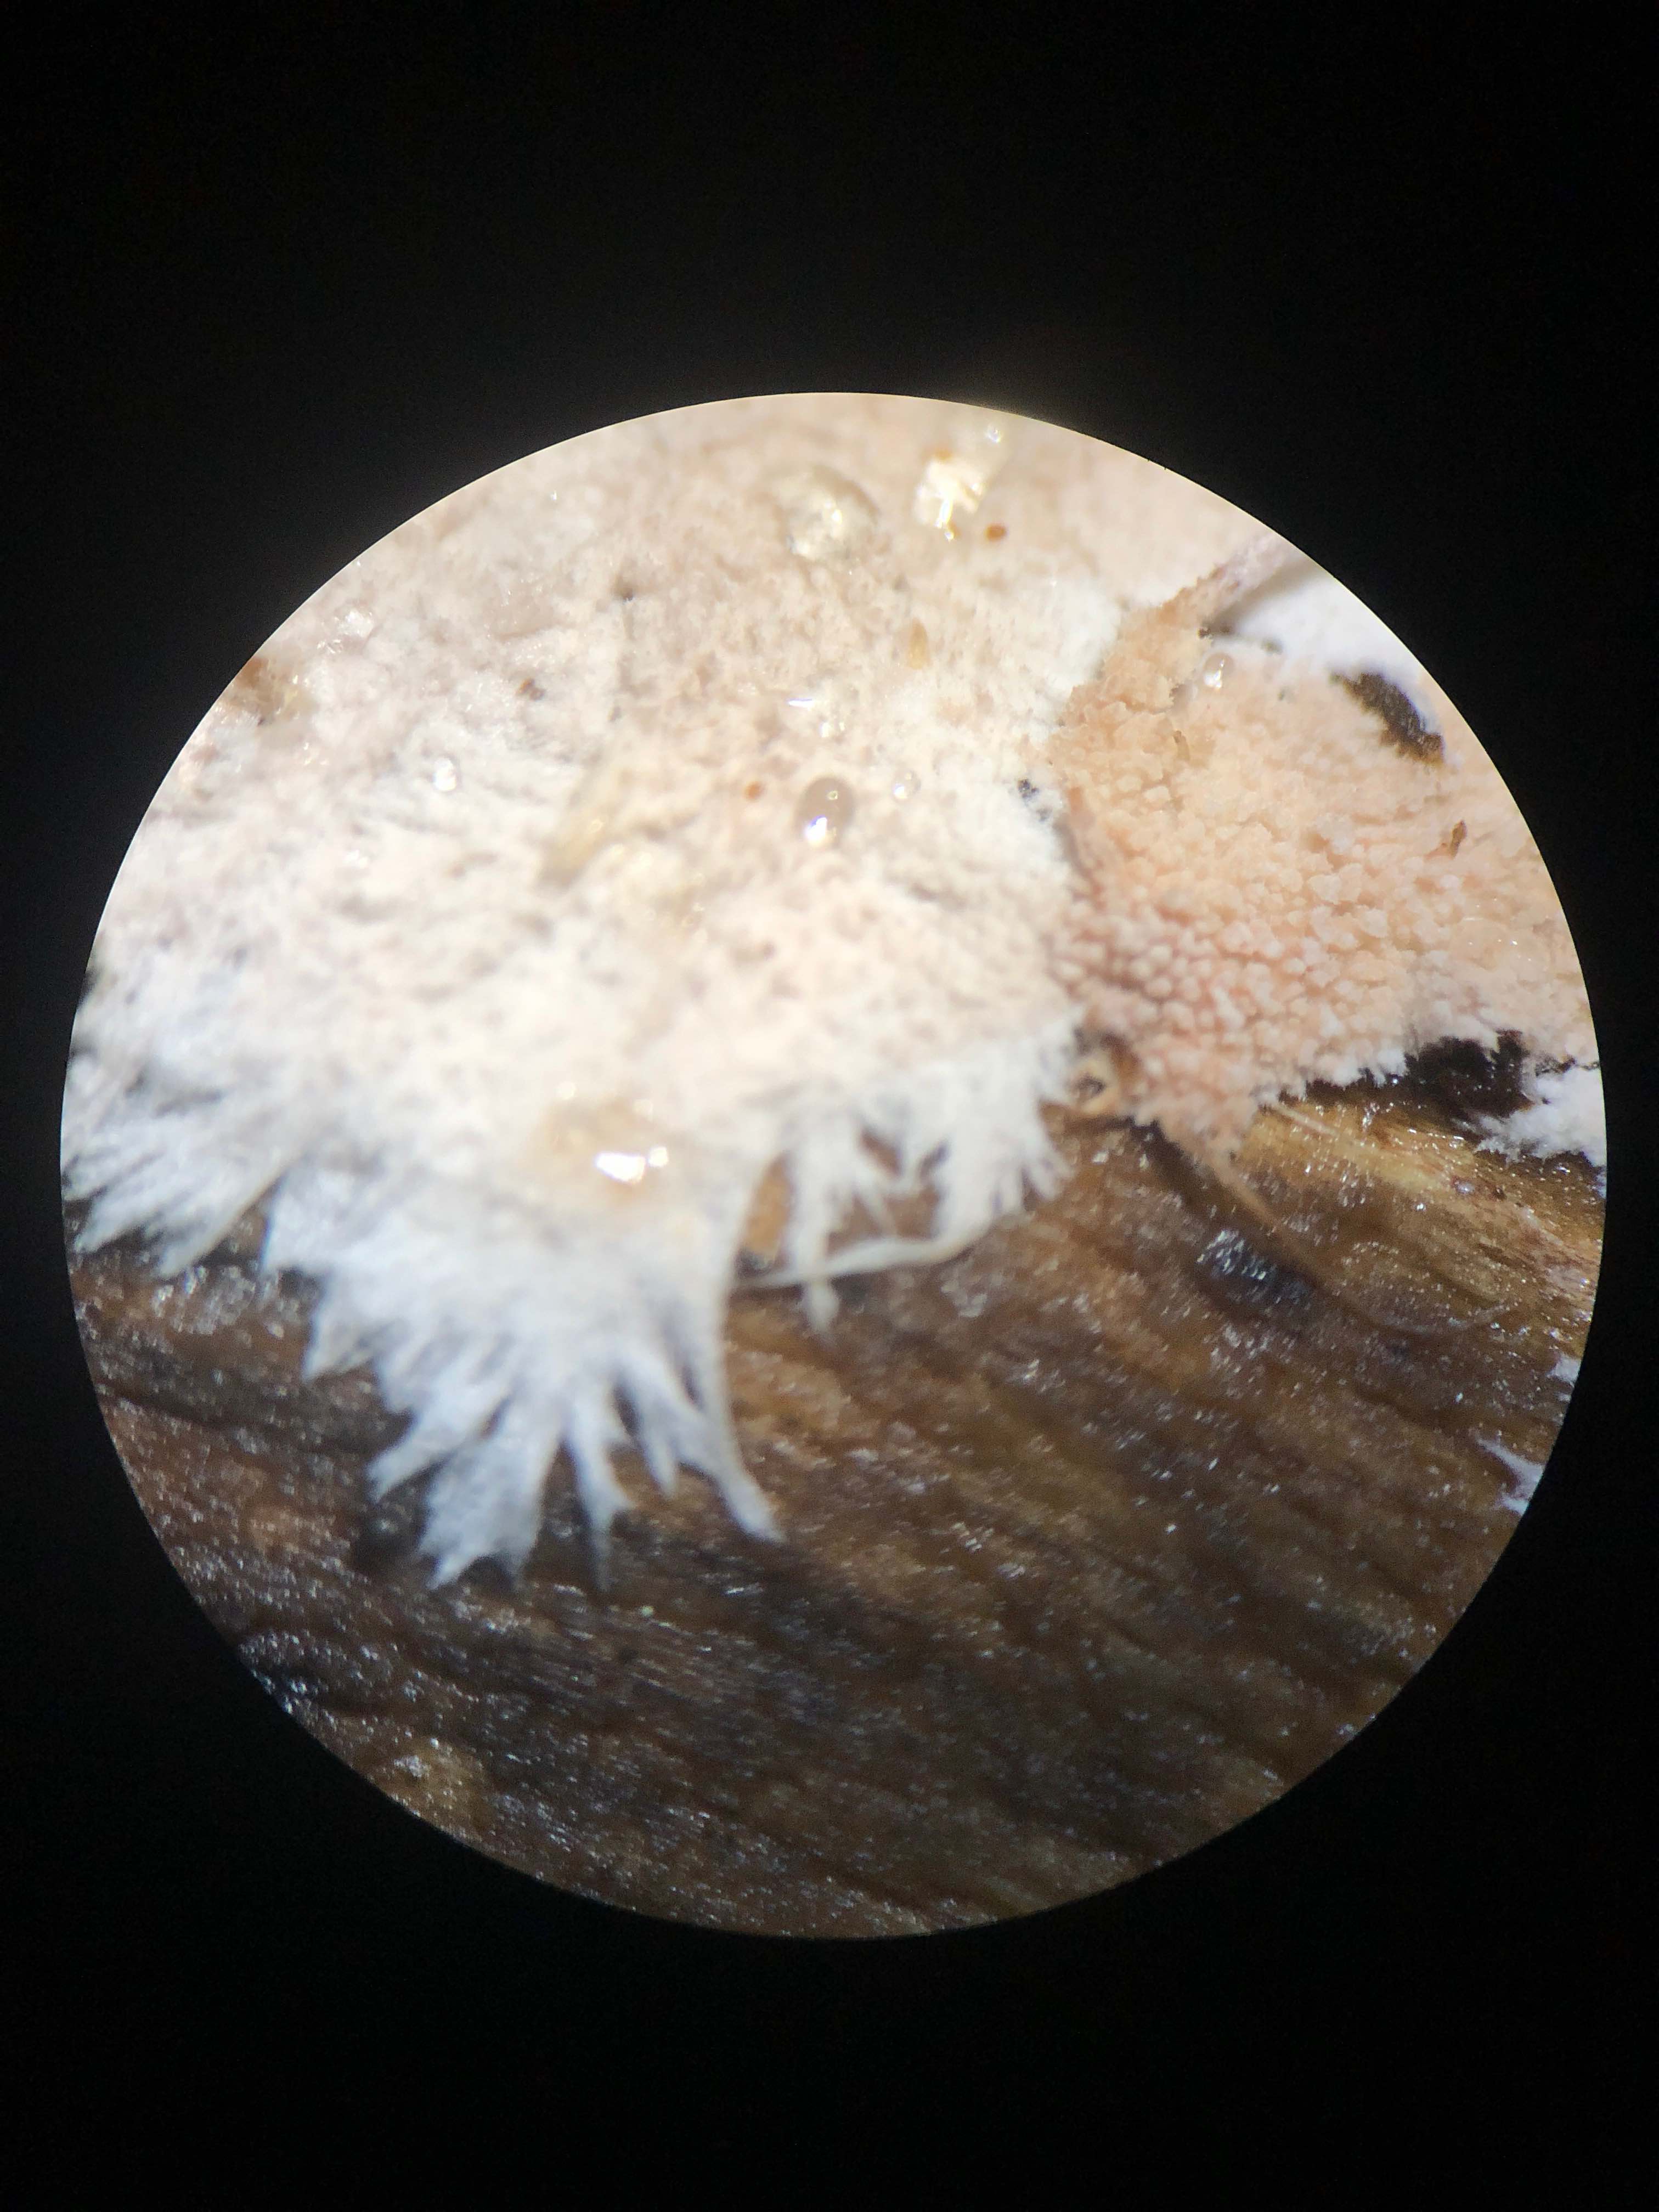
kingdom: Fungi
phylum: Basidiomycota
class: Agaricomycetes
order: Polyporales
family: Steccherinaceae
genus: Steccherinum
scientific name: Steccherinum fimbriatum
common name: trådet skønpig
